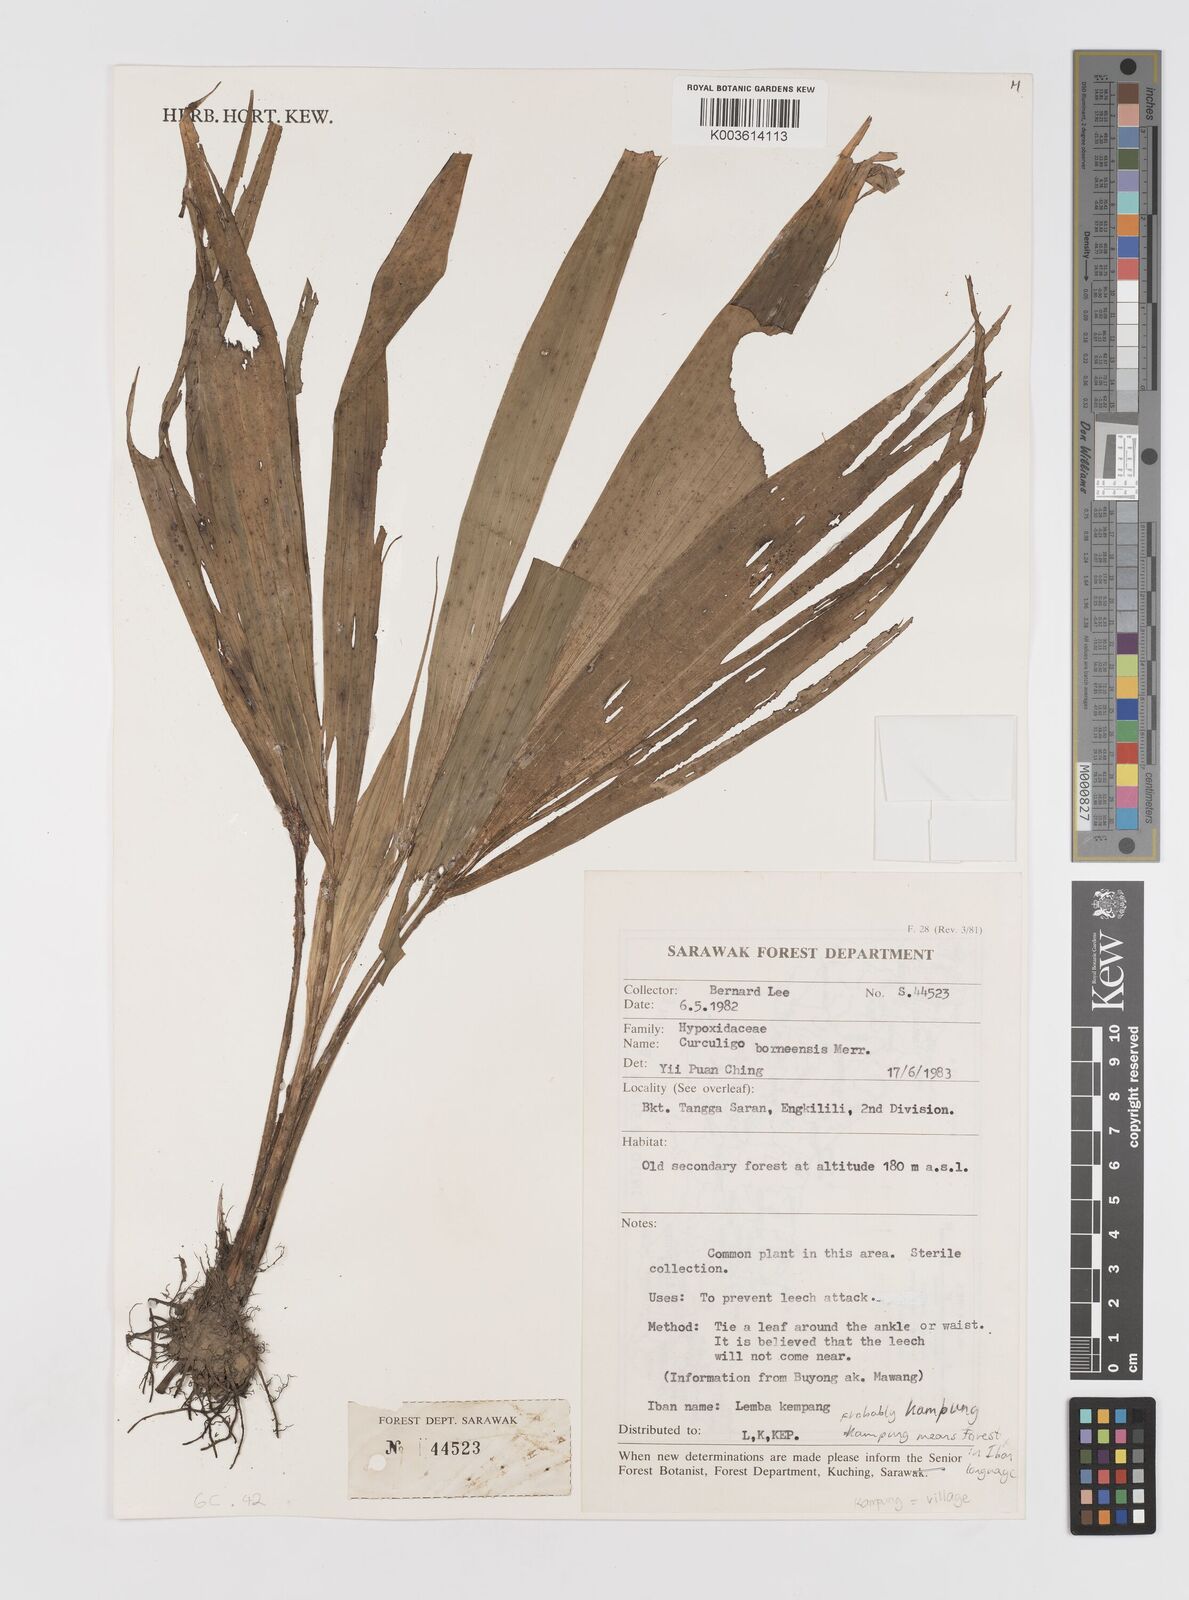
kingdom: Plantae
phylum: Tracheophyta
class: Liliopsida
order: Asparagales
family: Hypoxidaceae
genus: Curculigo
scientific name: Curculigo latifolia
